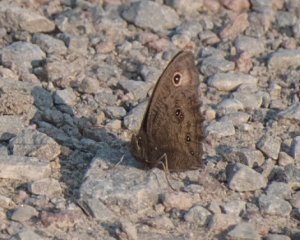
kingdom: Animalia
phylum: Arthropoda
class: Insecta
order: Lepidoptera
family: Nymphalidae
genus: Cercyonis
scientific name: Cercyonis pegala
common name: Common Wood-Nymph
